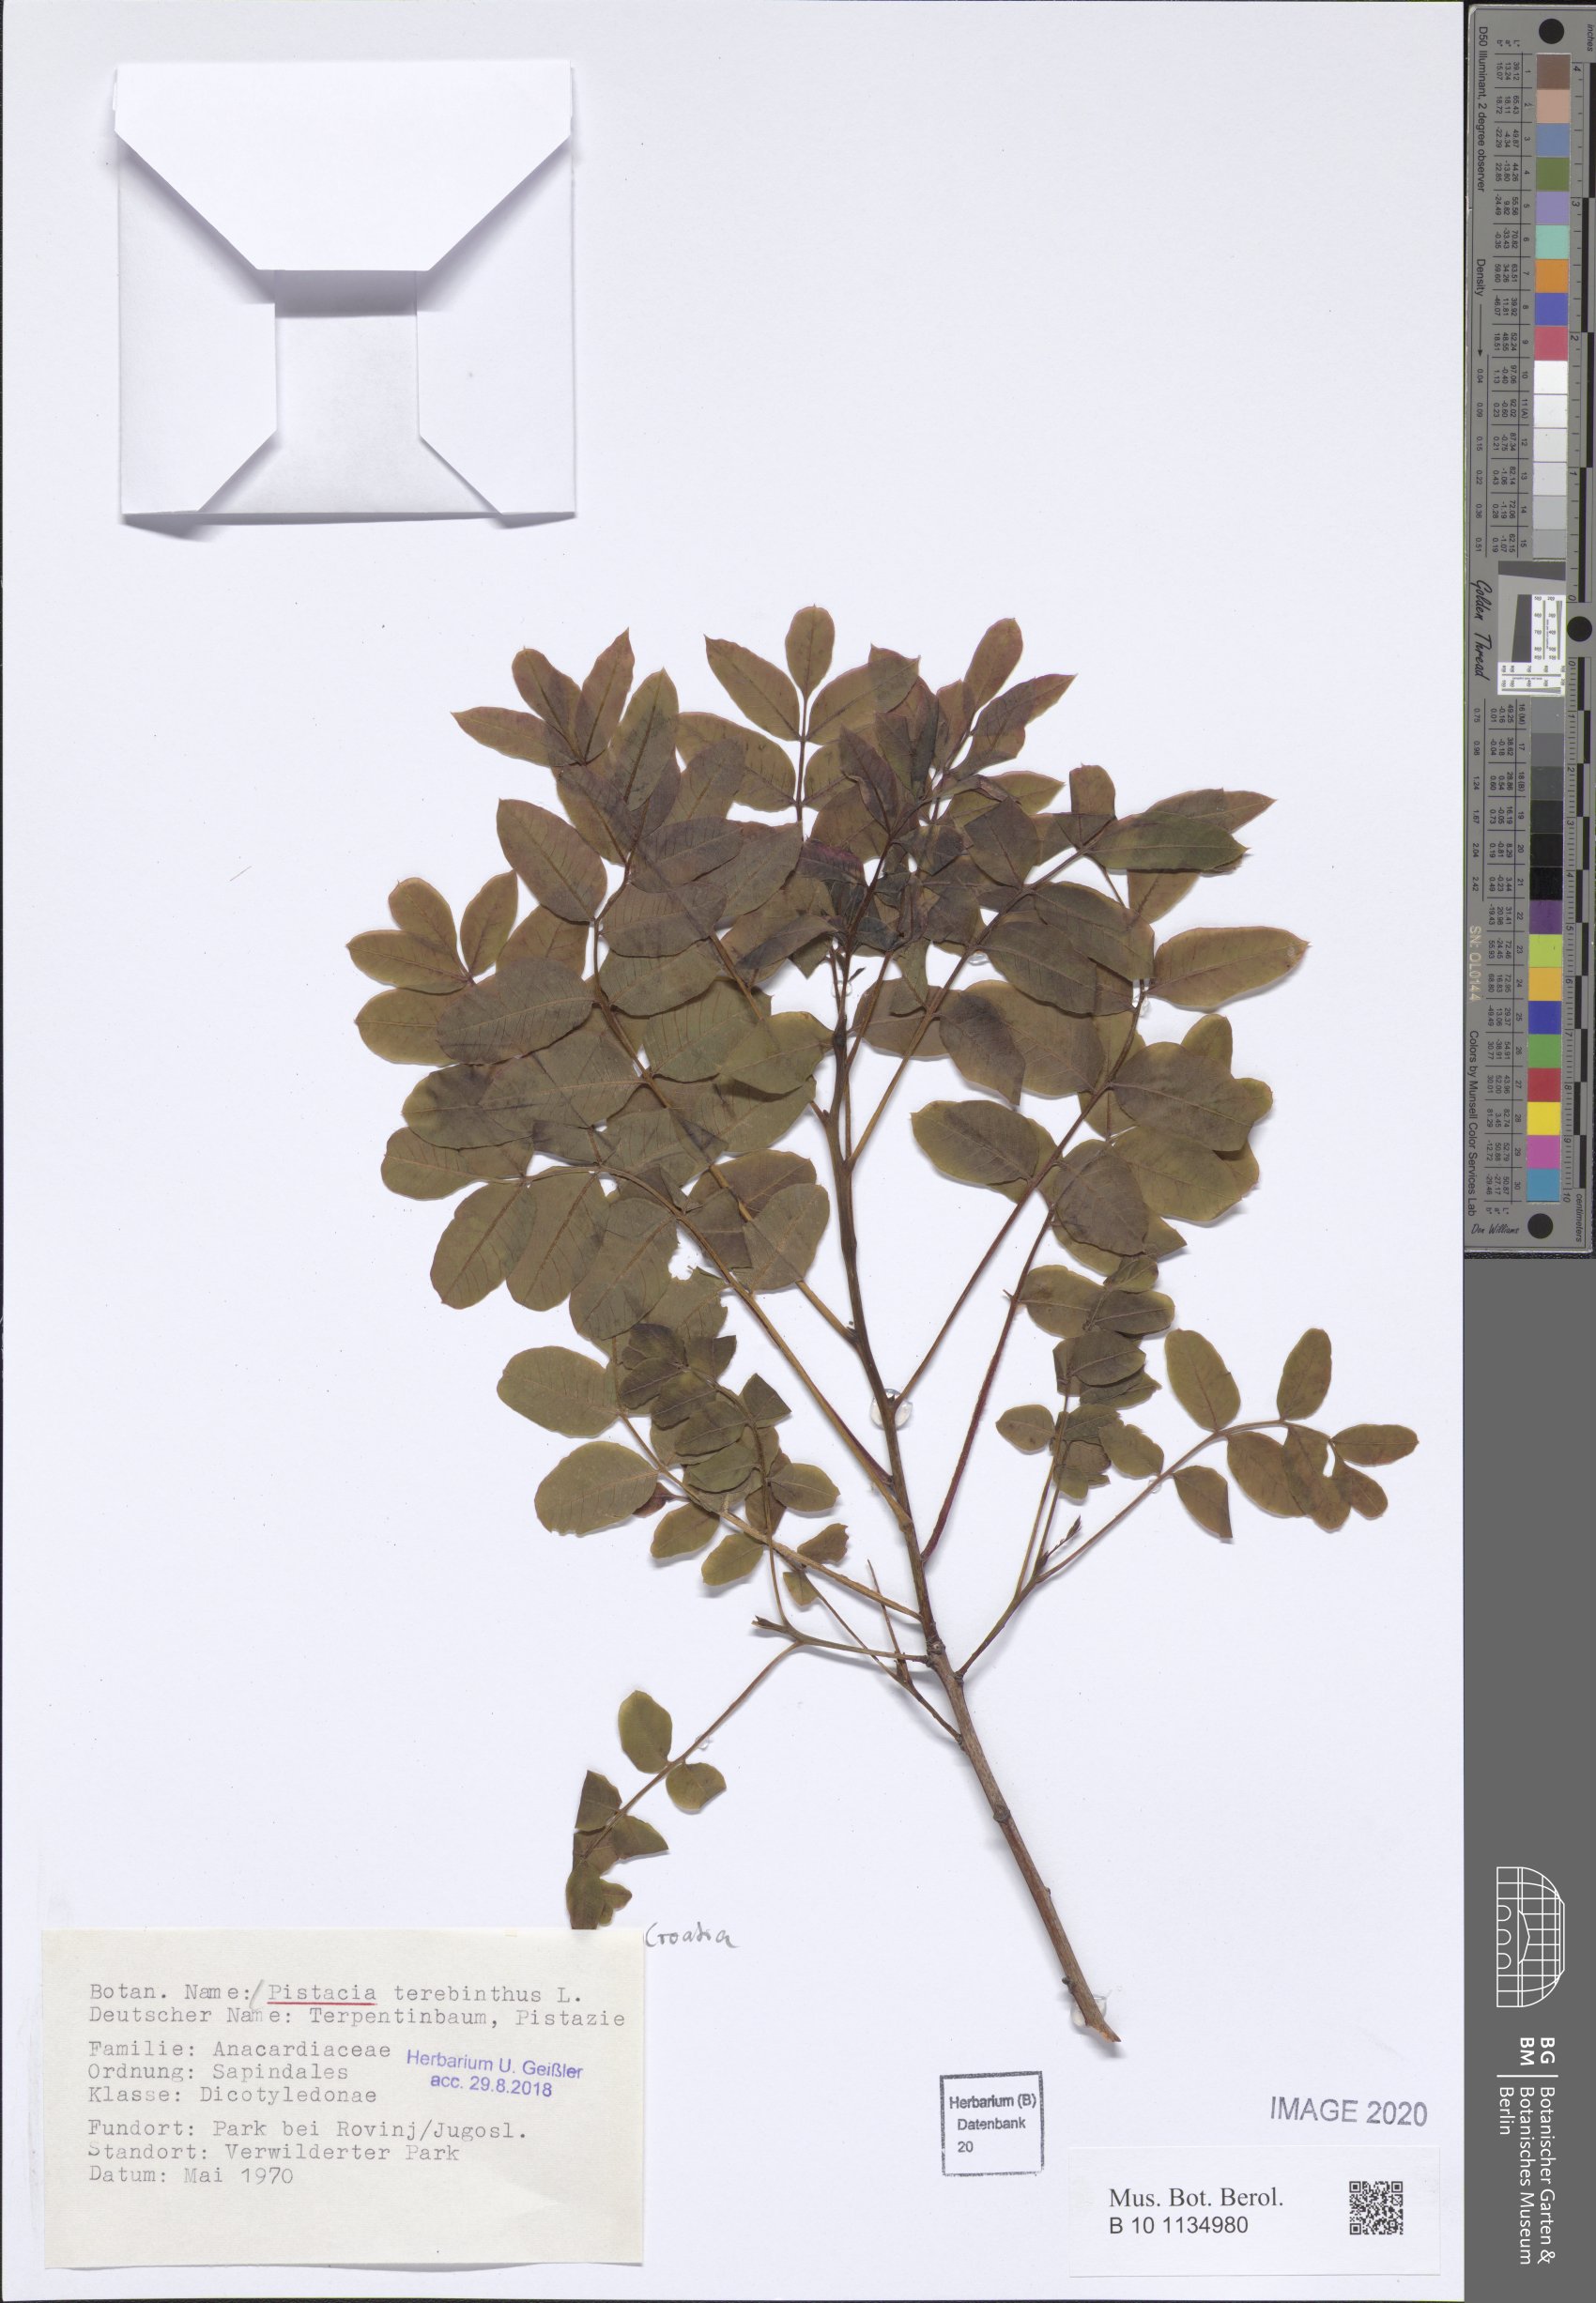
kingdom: Plantae
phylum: Tracheophyta
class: Magnoliopsida
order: Sapindales
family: Anacardiaceae
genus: Pistacia
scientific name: Pistacia terebinthus
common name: Terebinth
